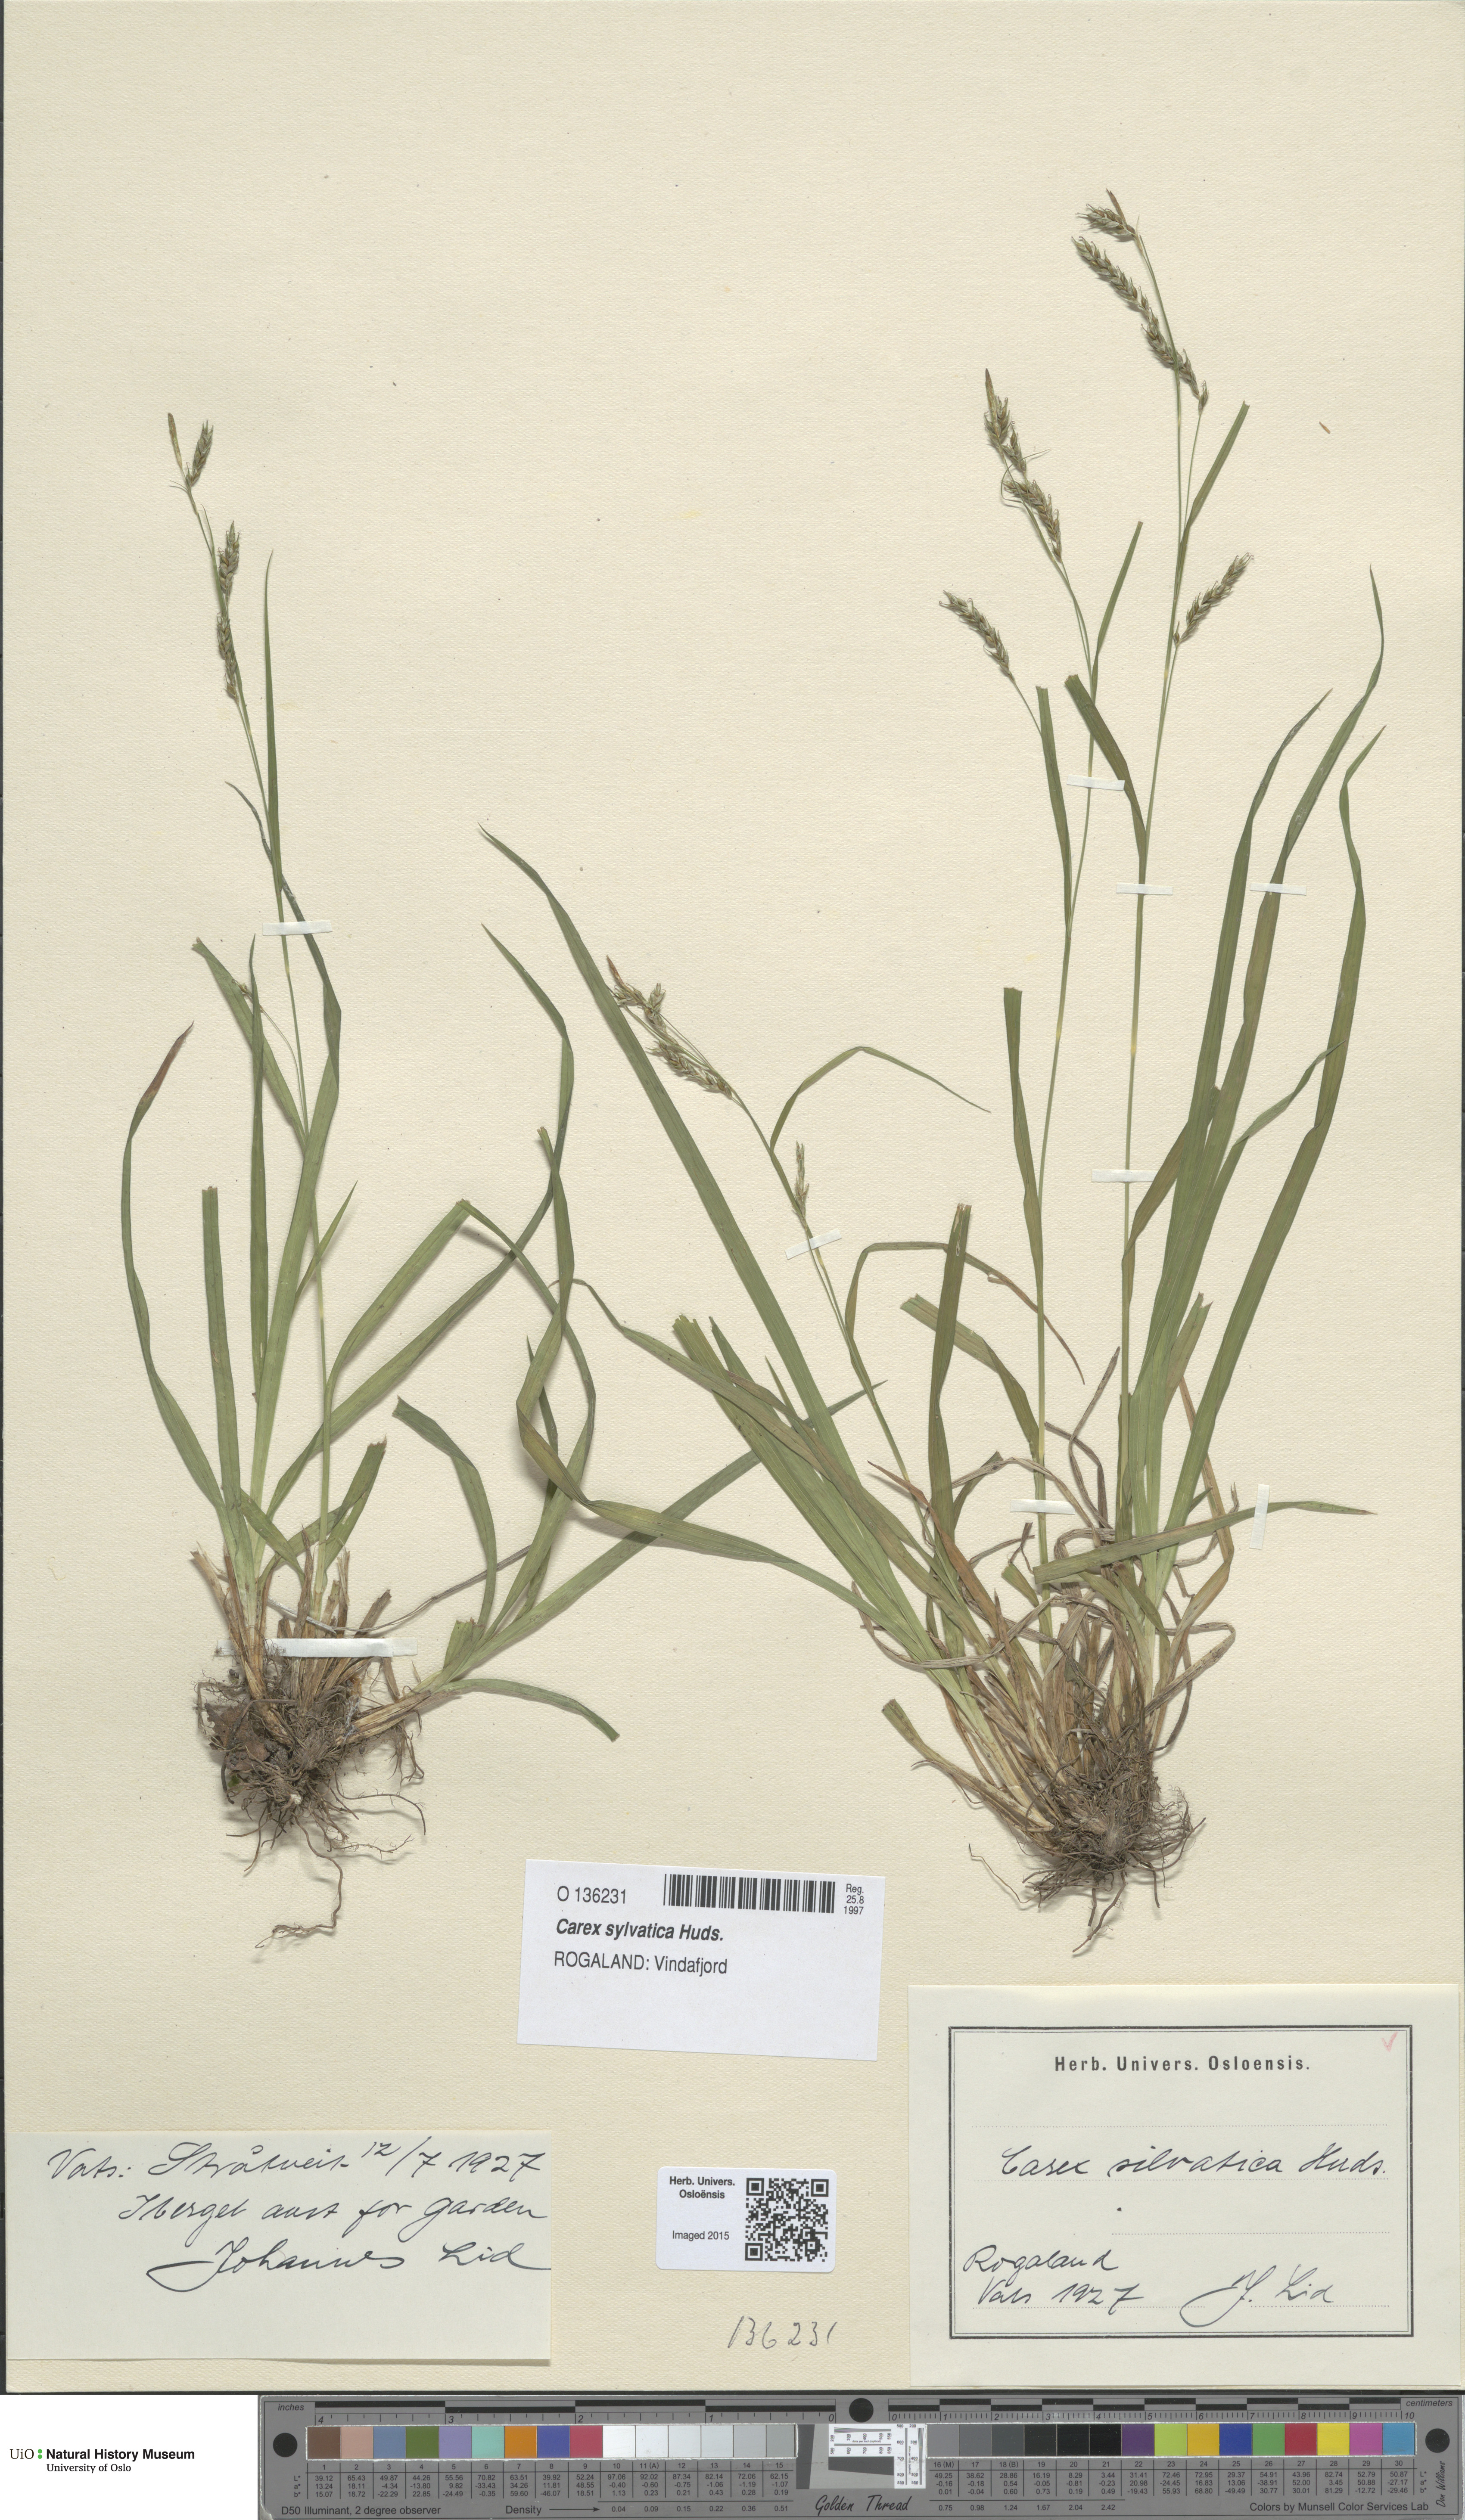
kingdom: Plantae
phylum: Tracheophyta
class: Liliopsida
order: Poales
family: Cyperaceae
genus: Carex
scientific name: Carex sylvatica
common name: Wood-sedge
